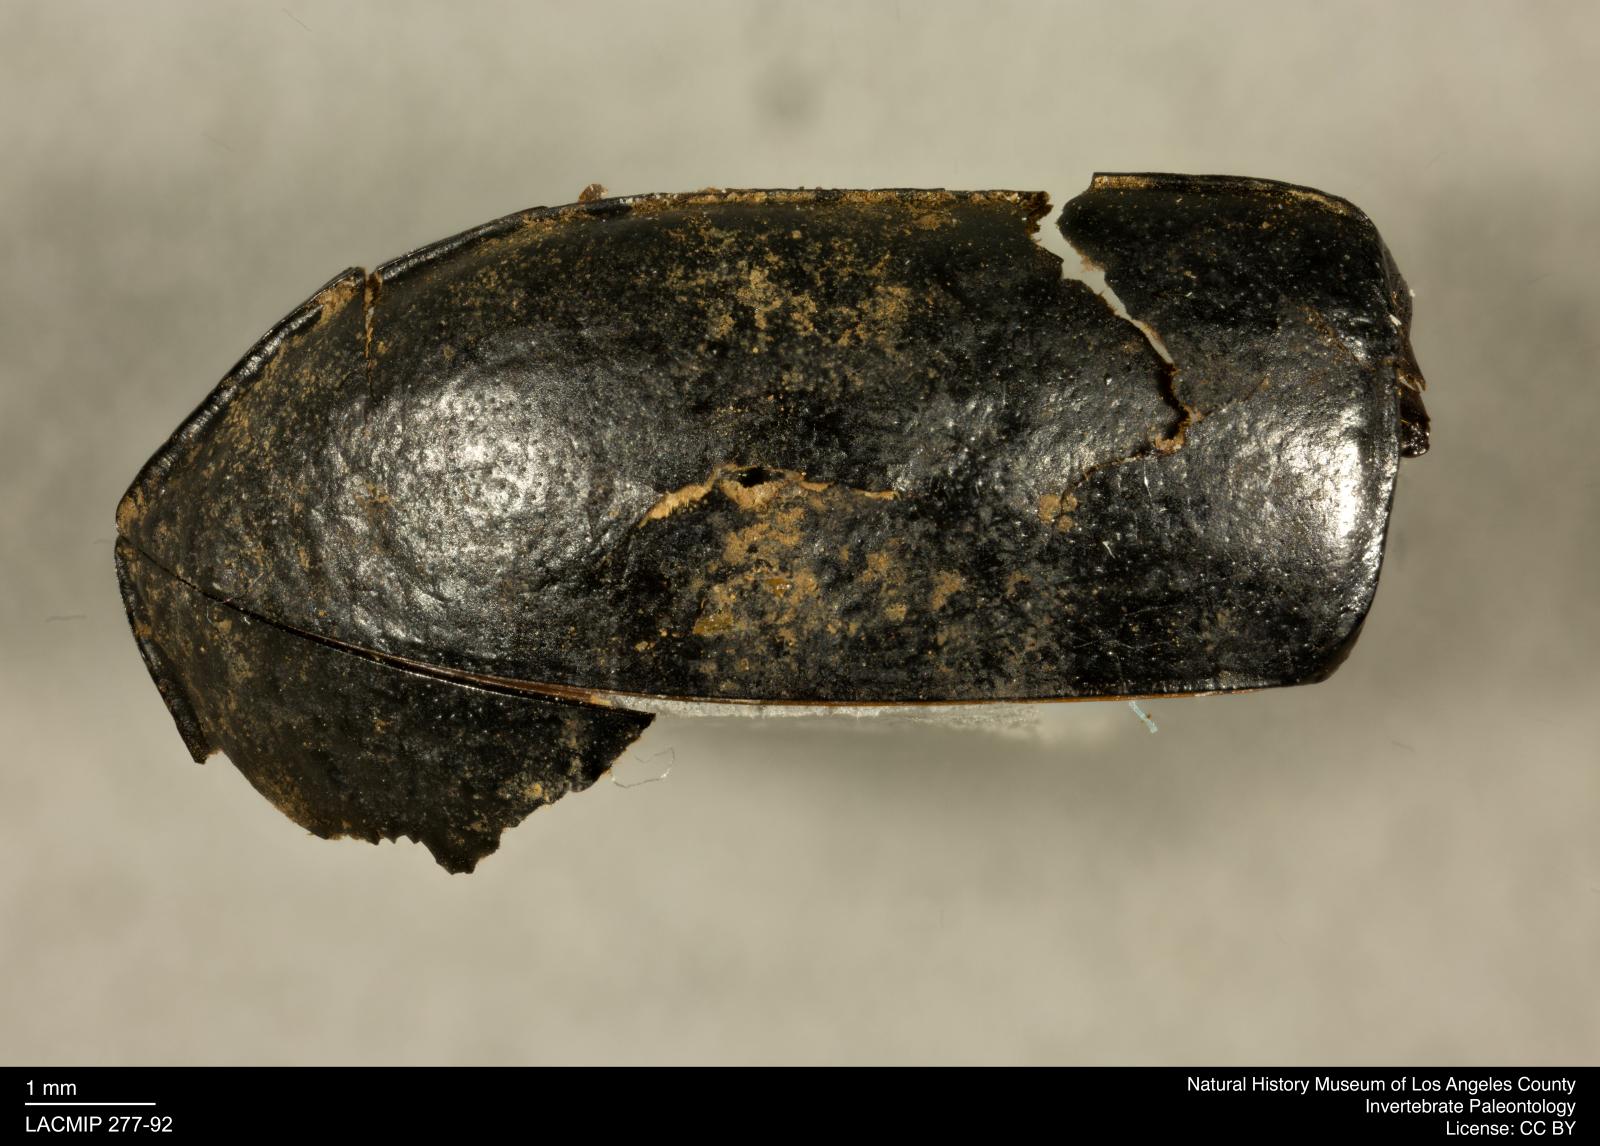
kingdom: Animalia
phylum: Arthropoda
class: Insecta
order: Coleoptera
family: Tenebrionidae
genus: Coniontis
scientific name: Coniontis abdominalis
